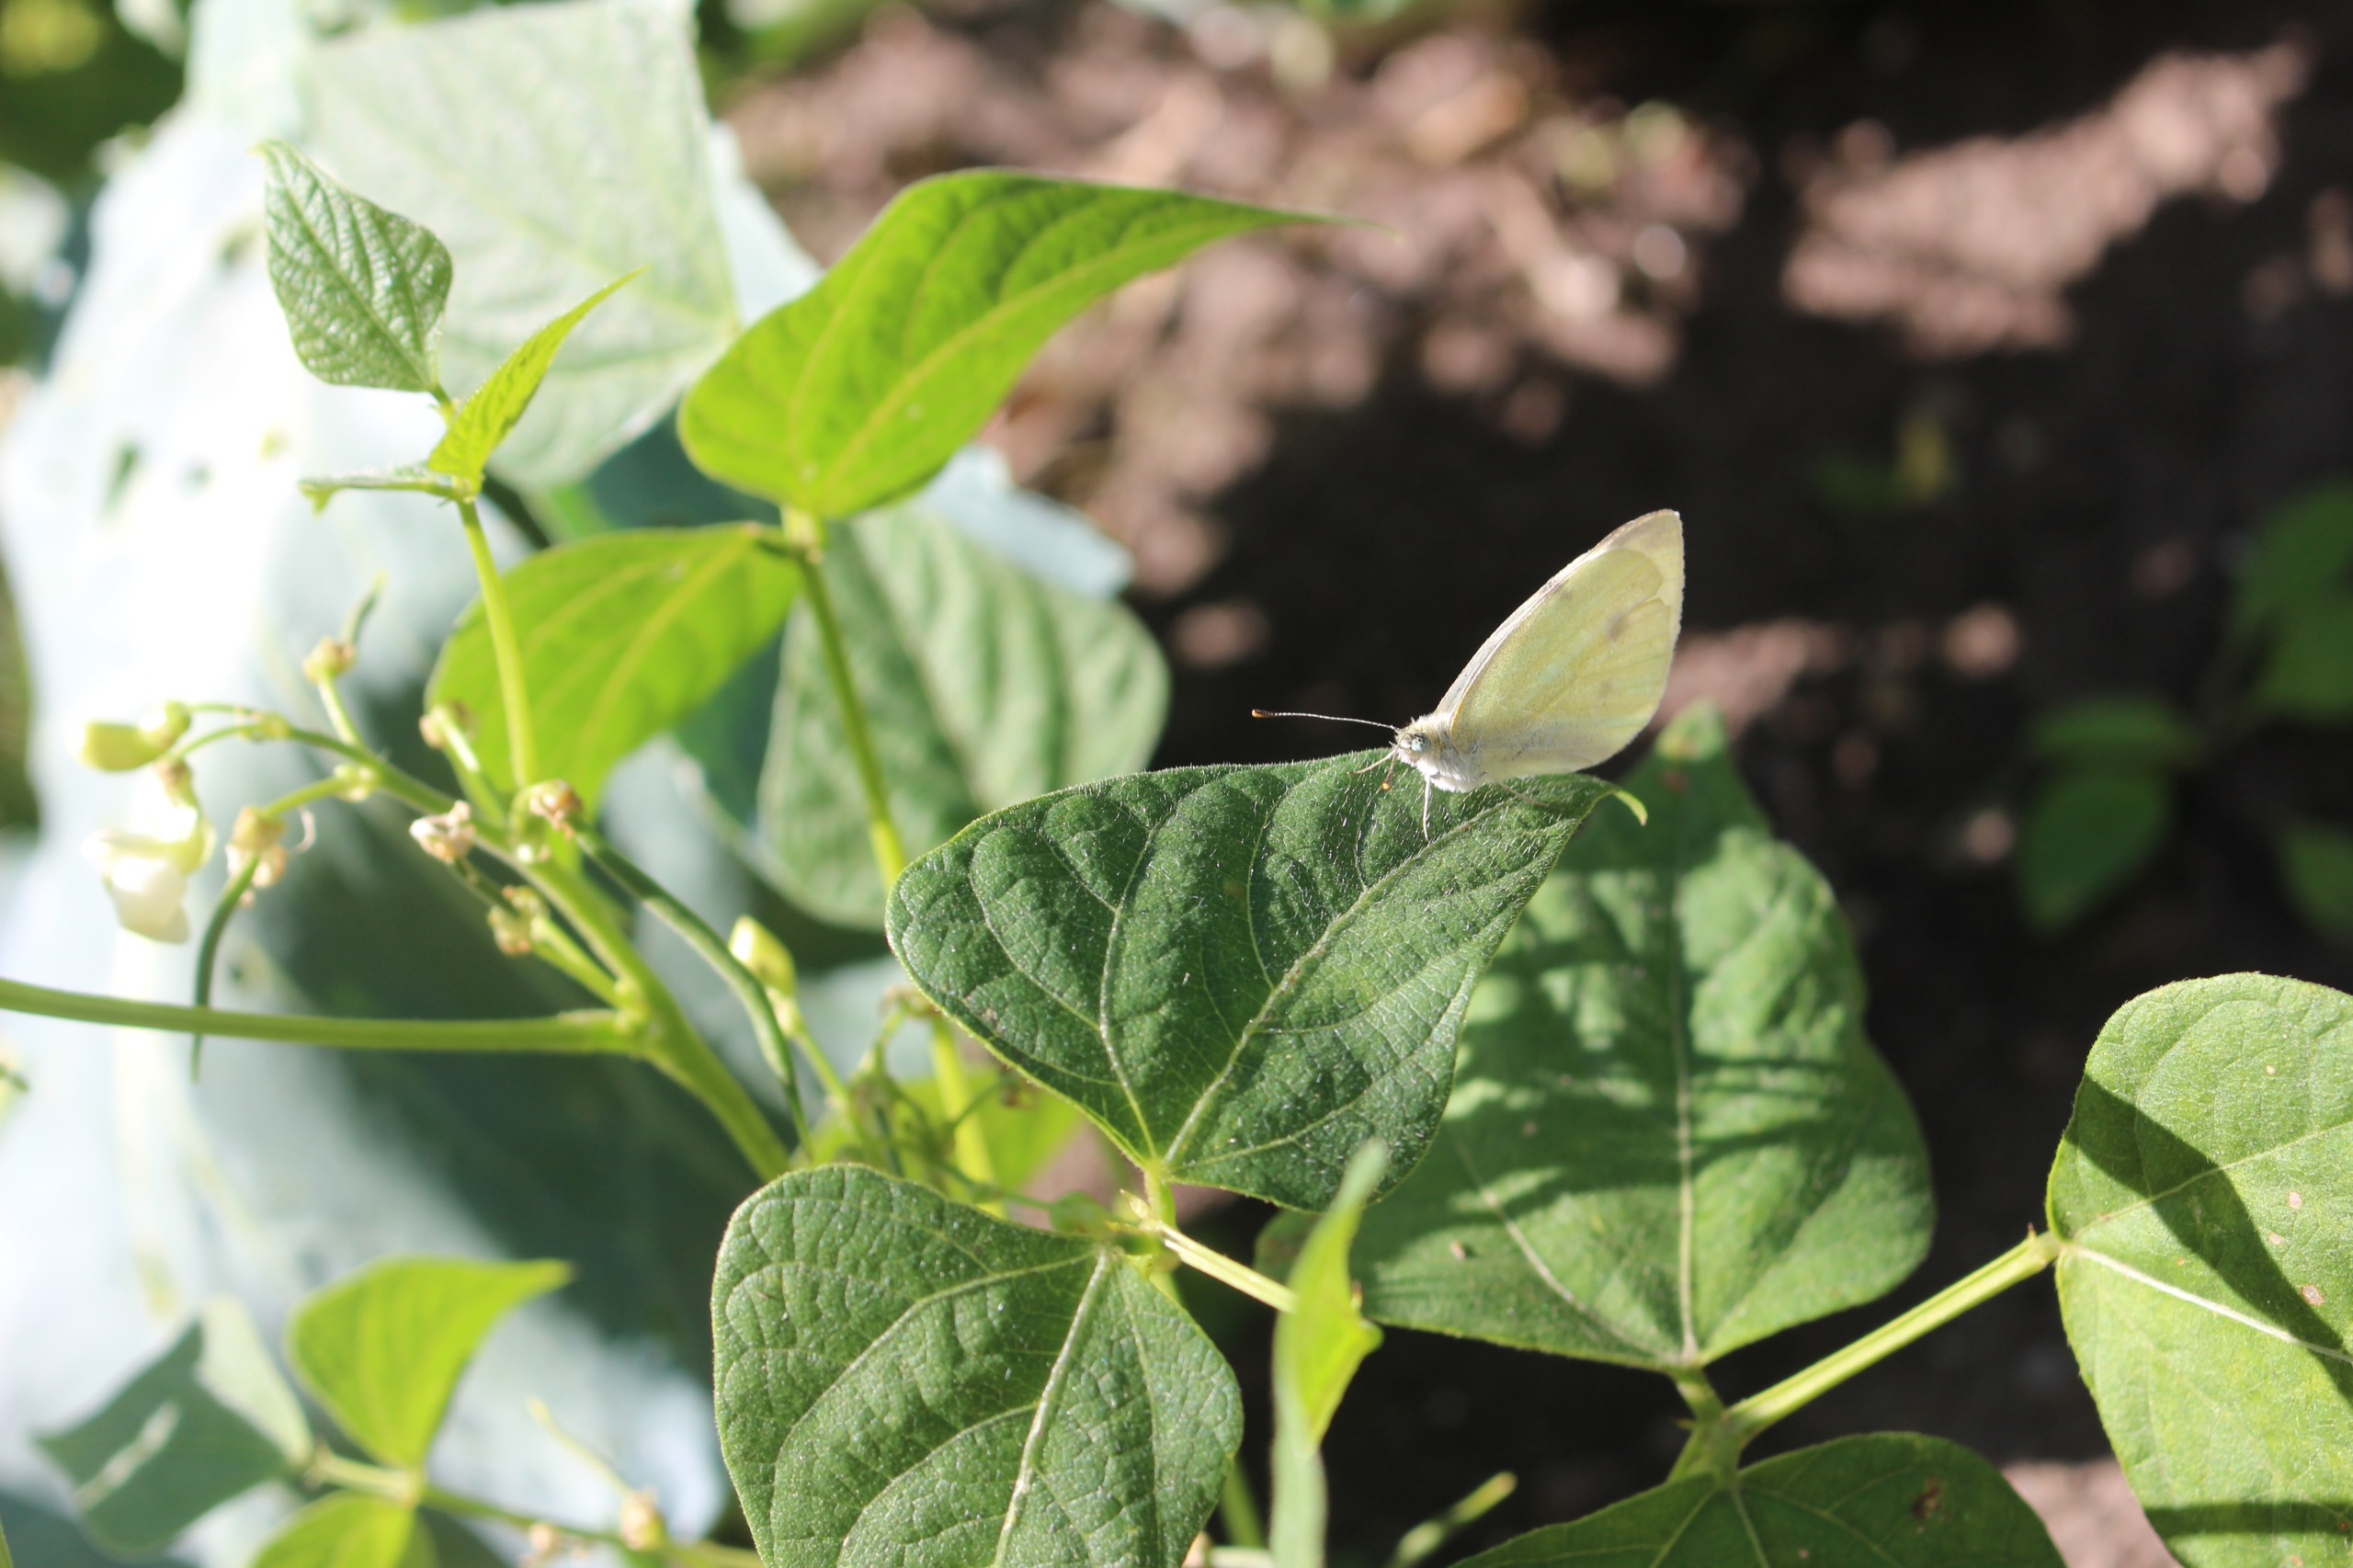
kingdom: Animalia
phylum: Arthropoda
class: Insecta
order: Lepidoptera
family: Pieridae
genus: Pieris
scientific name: Pieris rapae
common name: Lille kålsommerfugl
